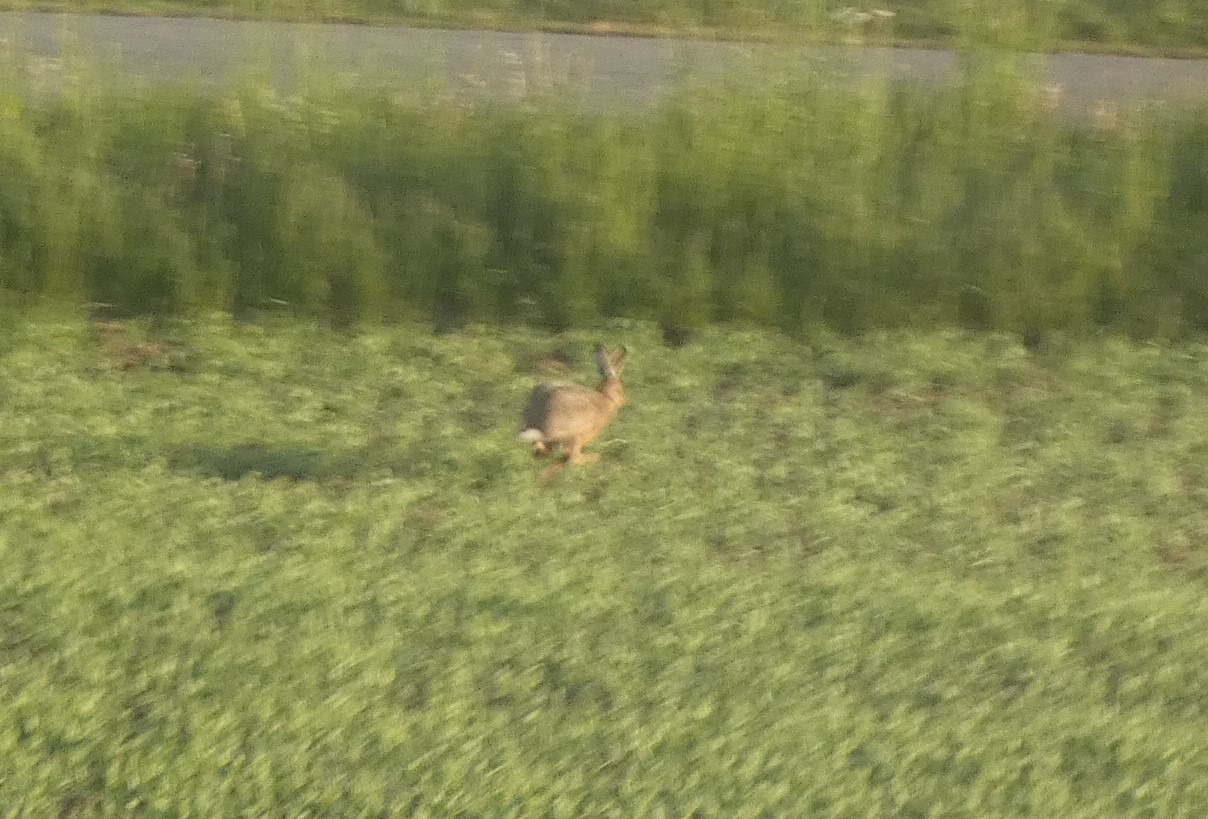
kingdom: Animalia
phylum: Chordata
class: Mammalia
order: Lagomorpha
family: Leporidae
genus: Lepus
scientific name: Lepus europaeus
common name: Hare
